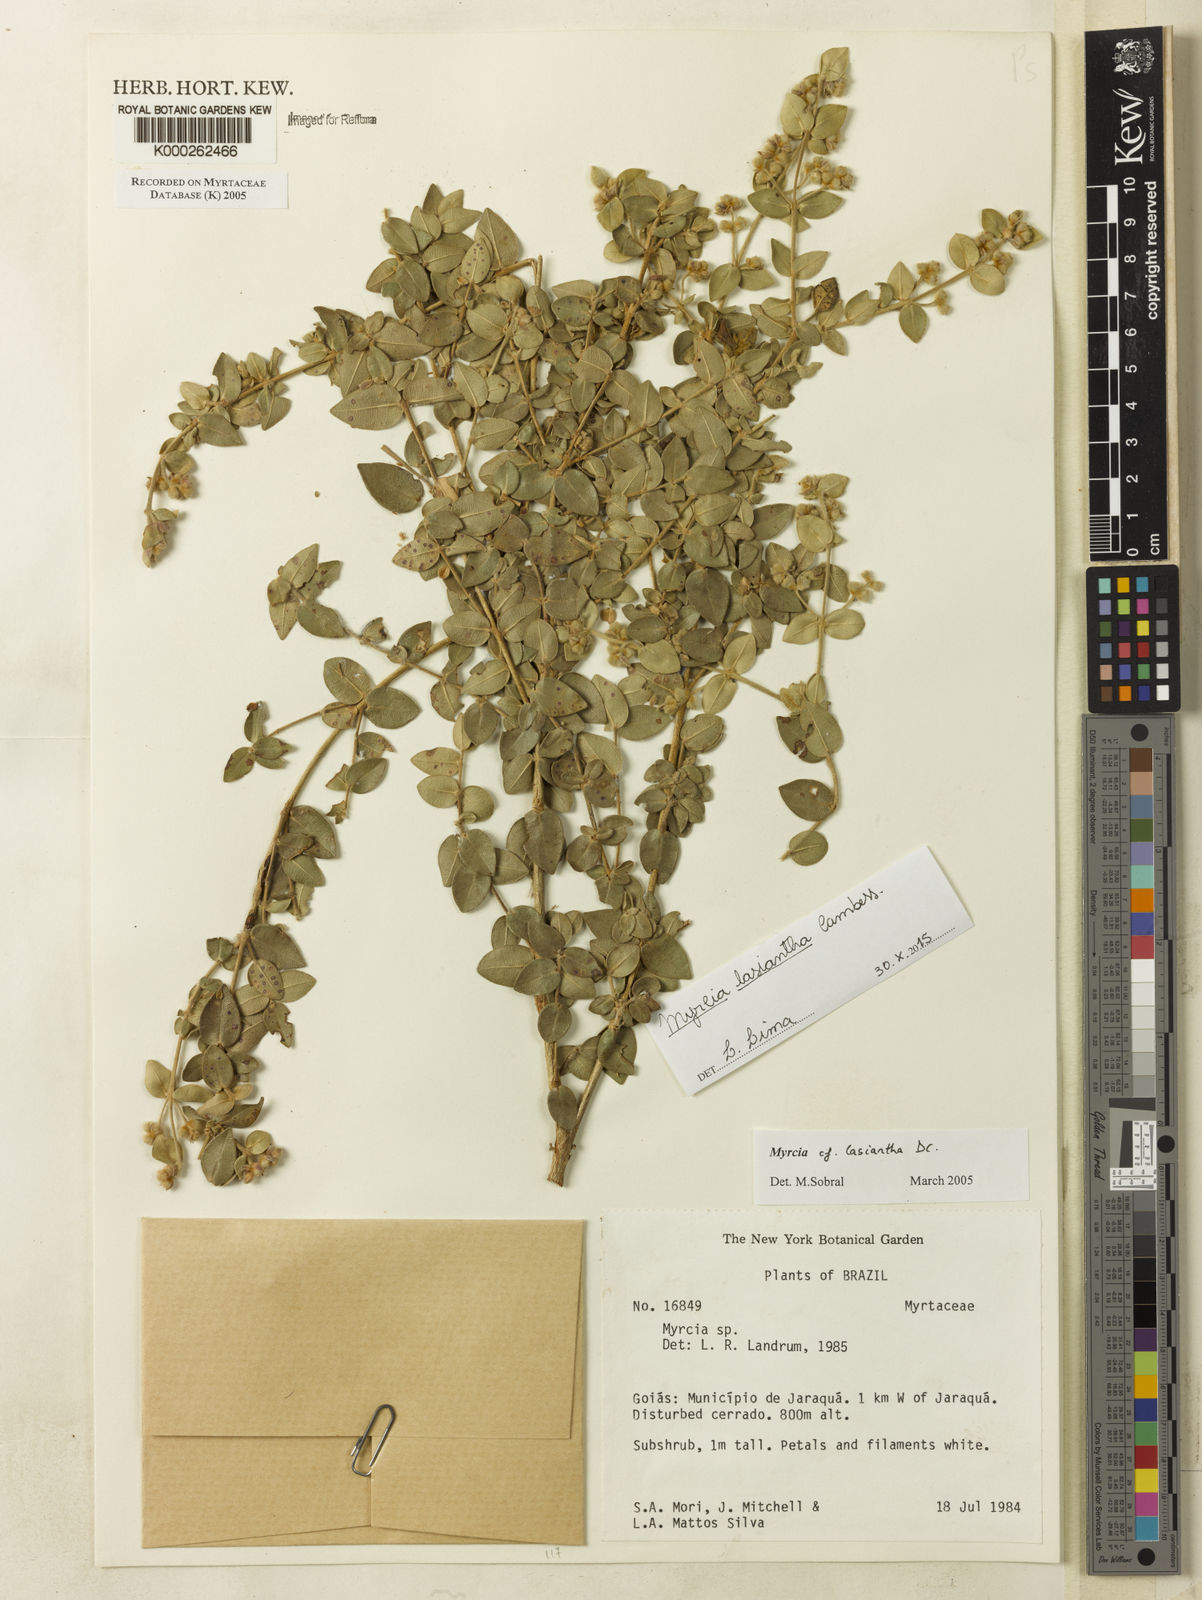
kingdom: Plantae
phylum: Tracheophyta
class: Magnoliopsida
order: Myrtales
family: Myrtaceae
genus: Myrcia
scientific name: Myrcia lasiantha
